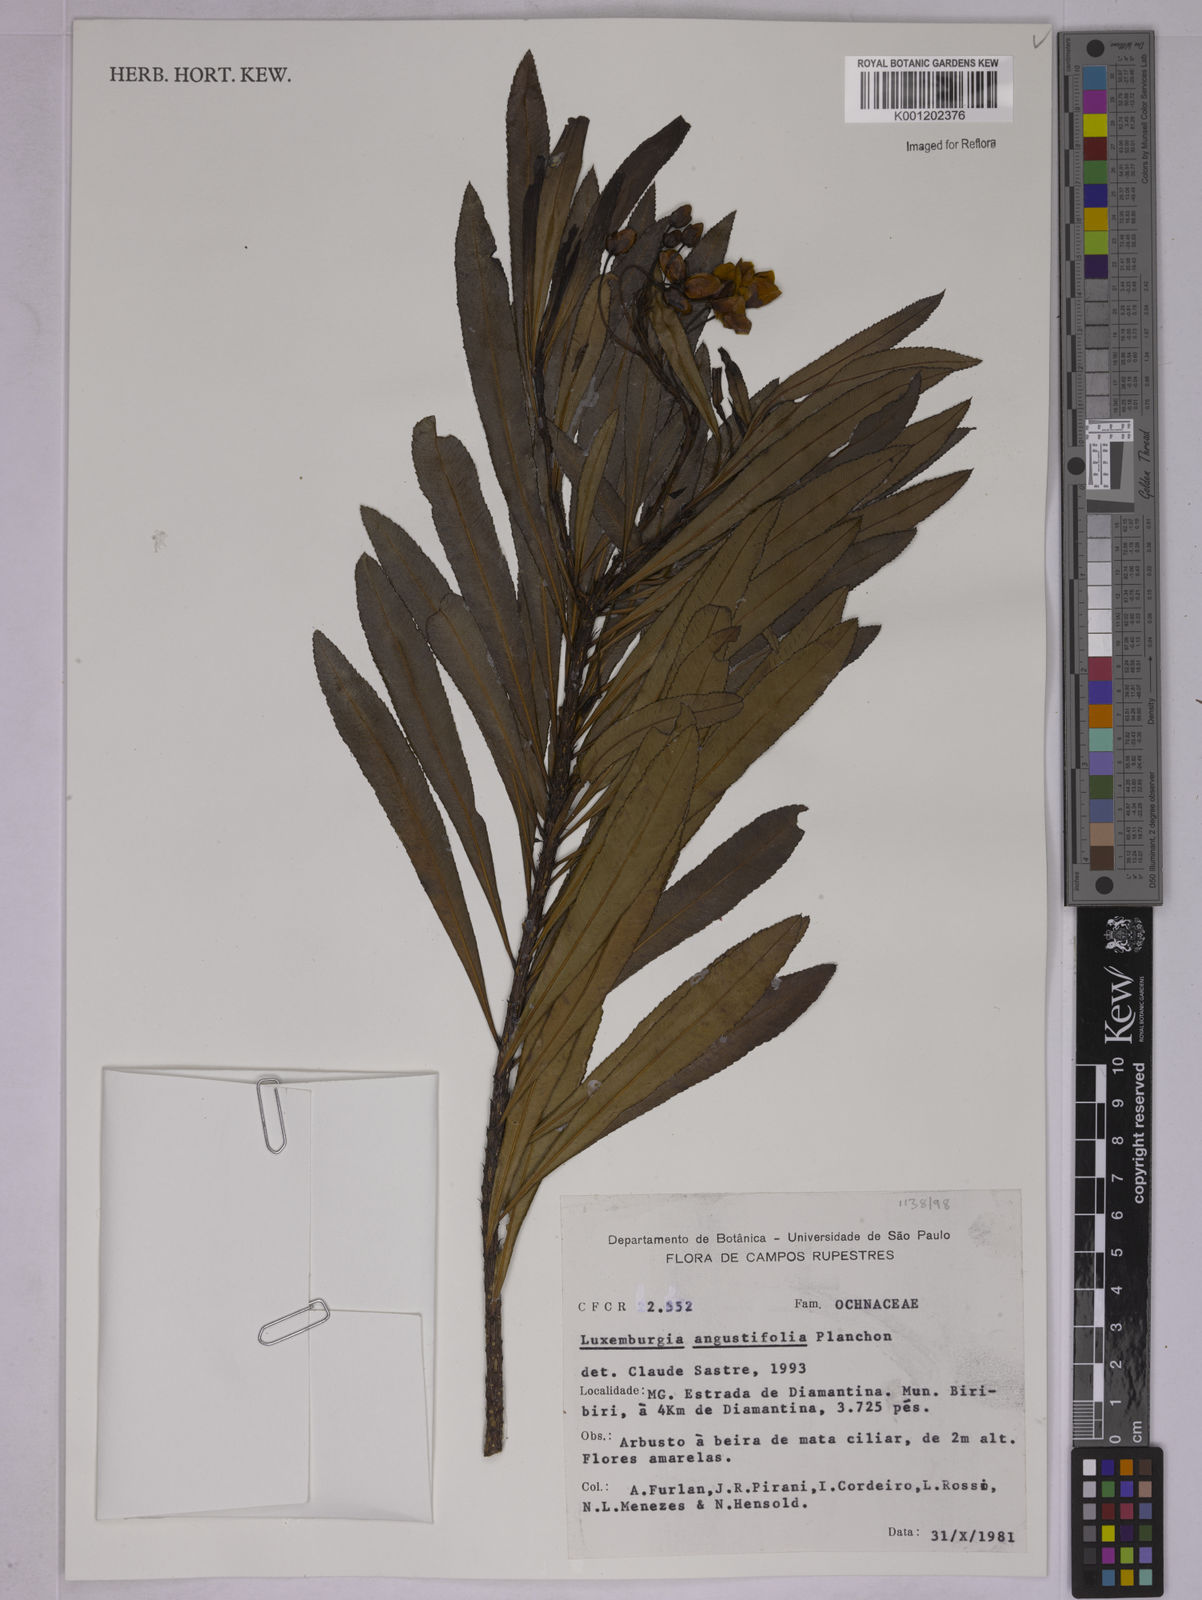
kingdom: Plantae
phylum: Tracheophyta
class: Magnoliopsida
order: Malpighiales
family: Ochnaceae
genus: Luxemburgia
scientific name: Luxemburgia angustifolia
